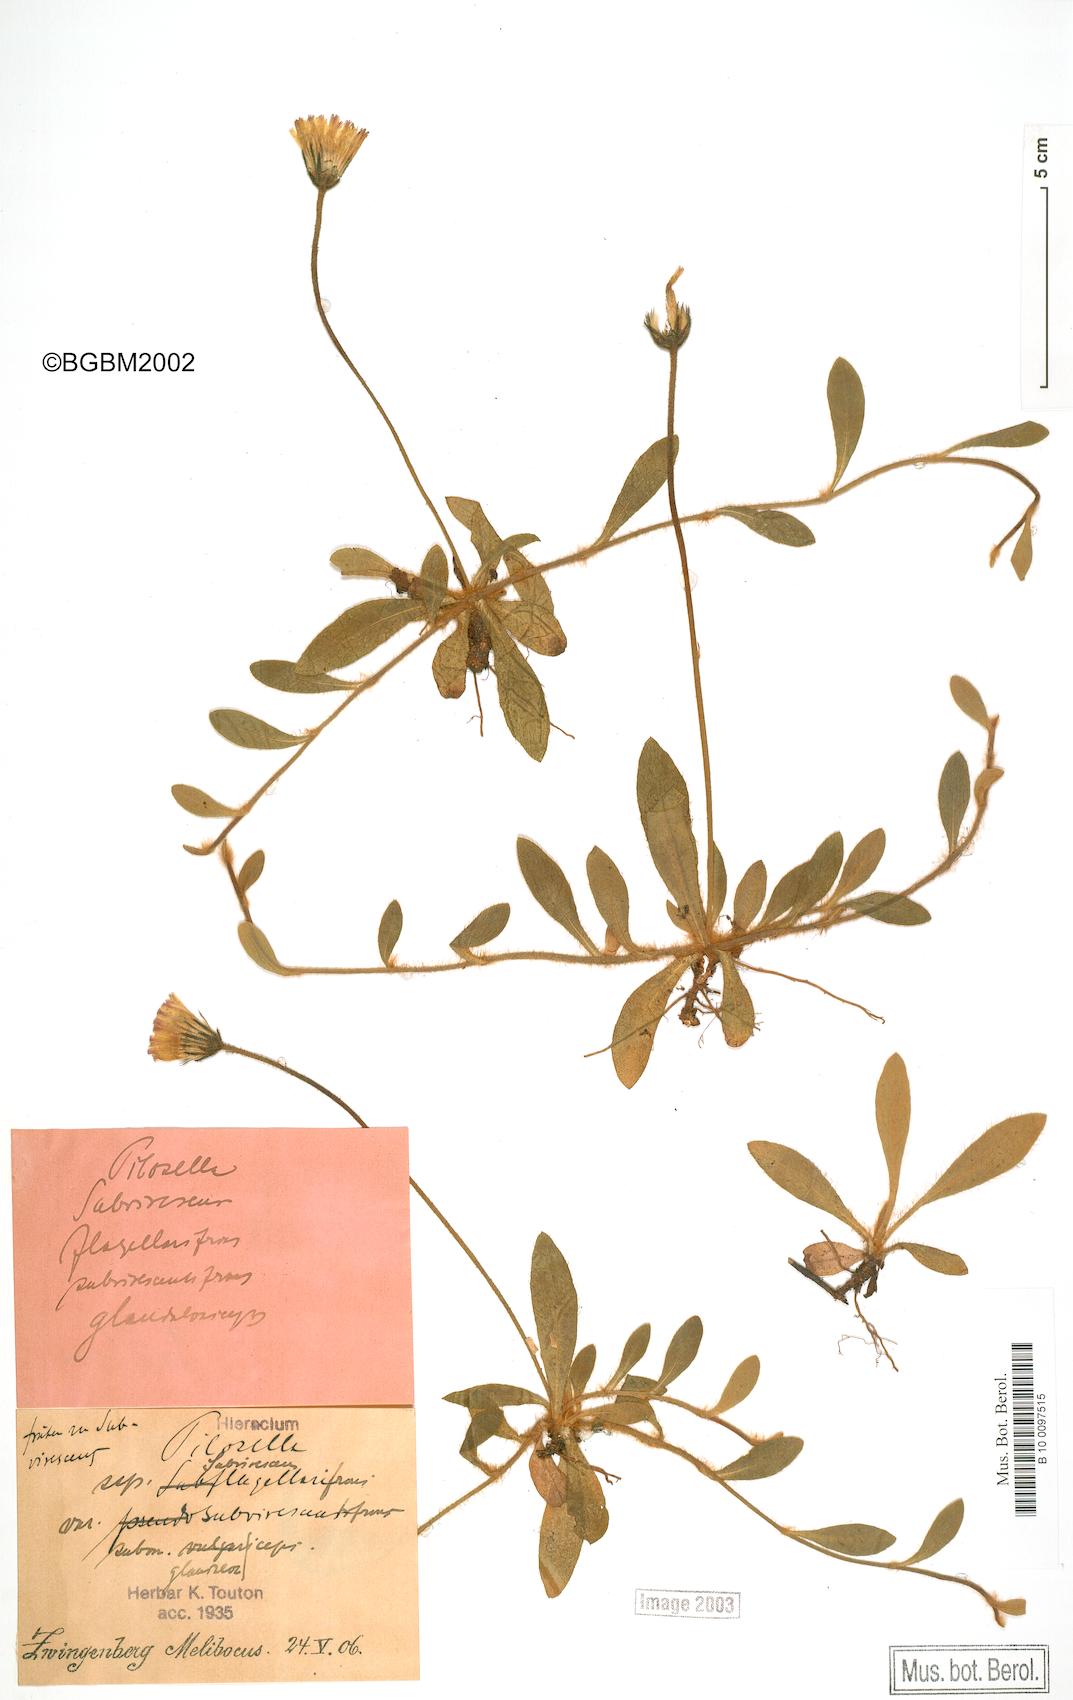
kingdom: Plantae
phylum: Tracheophyta
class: Magnoliopsida
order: Asterales
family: Asteraceae
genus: Pilosella
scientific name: Pilosella officinarum
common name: Mouse-ear hawkweed
